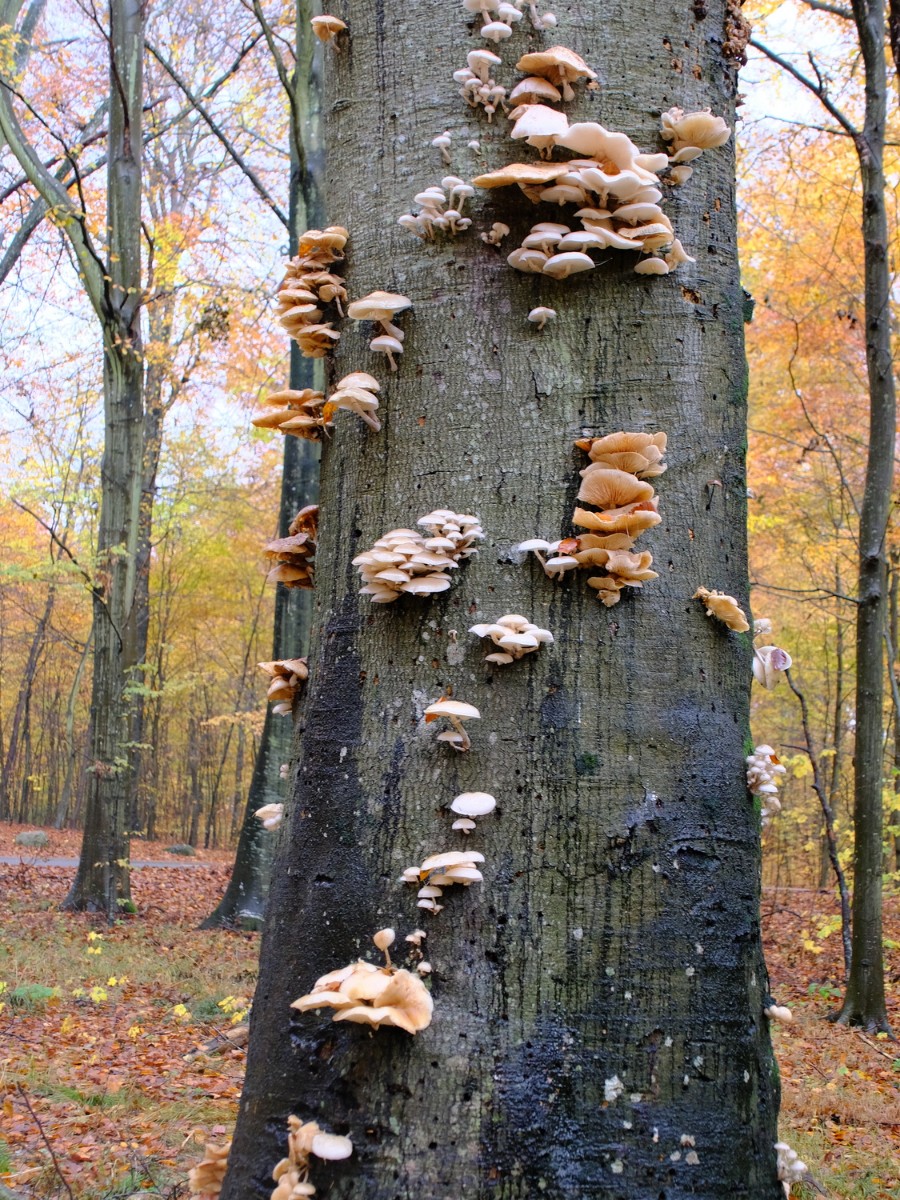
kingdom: Fungi
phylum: Basidiomycota
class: Agaricomycetes
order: Agaricales
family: Physalacriaceae
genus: Mucidula
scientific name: Mucidula mucida
